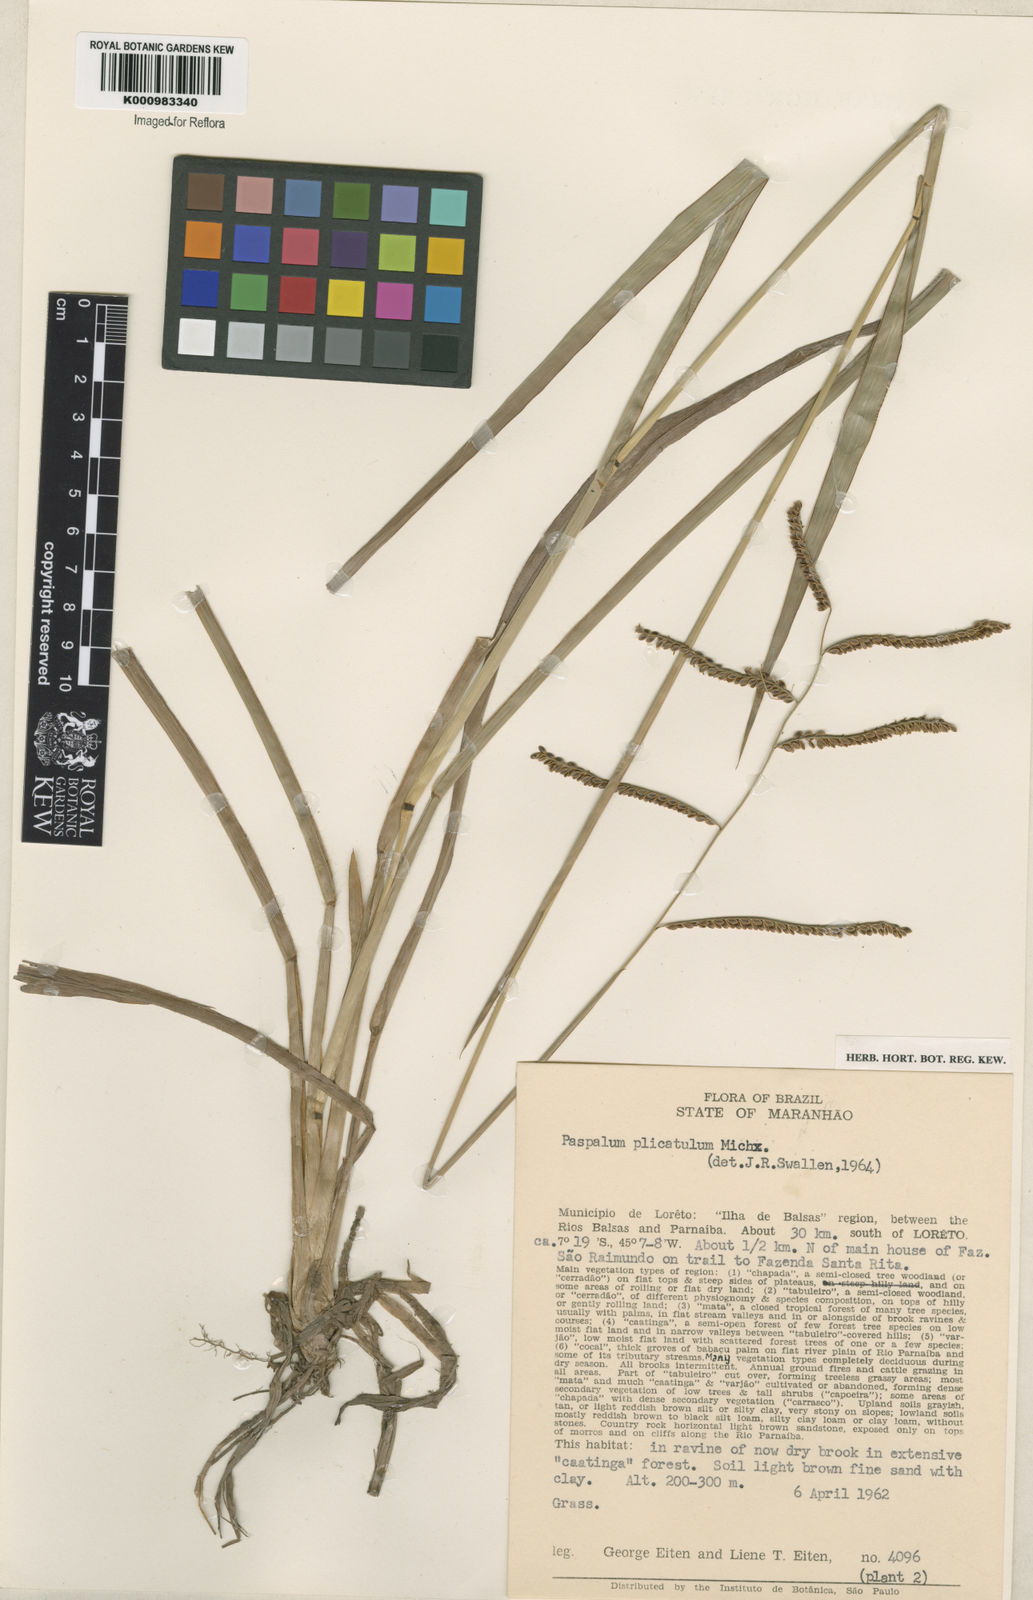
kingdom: Plantae
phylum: Tracheophyta
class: Liliopsida
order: Poales
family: Poaceae
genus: Paspalum
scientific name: Paspalum plicatulum
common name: Top paspalum
